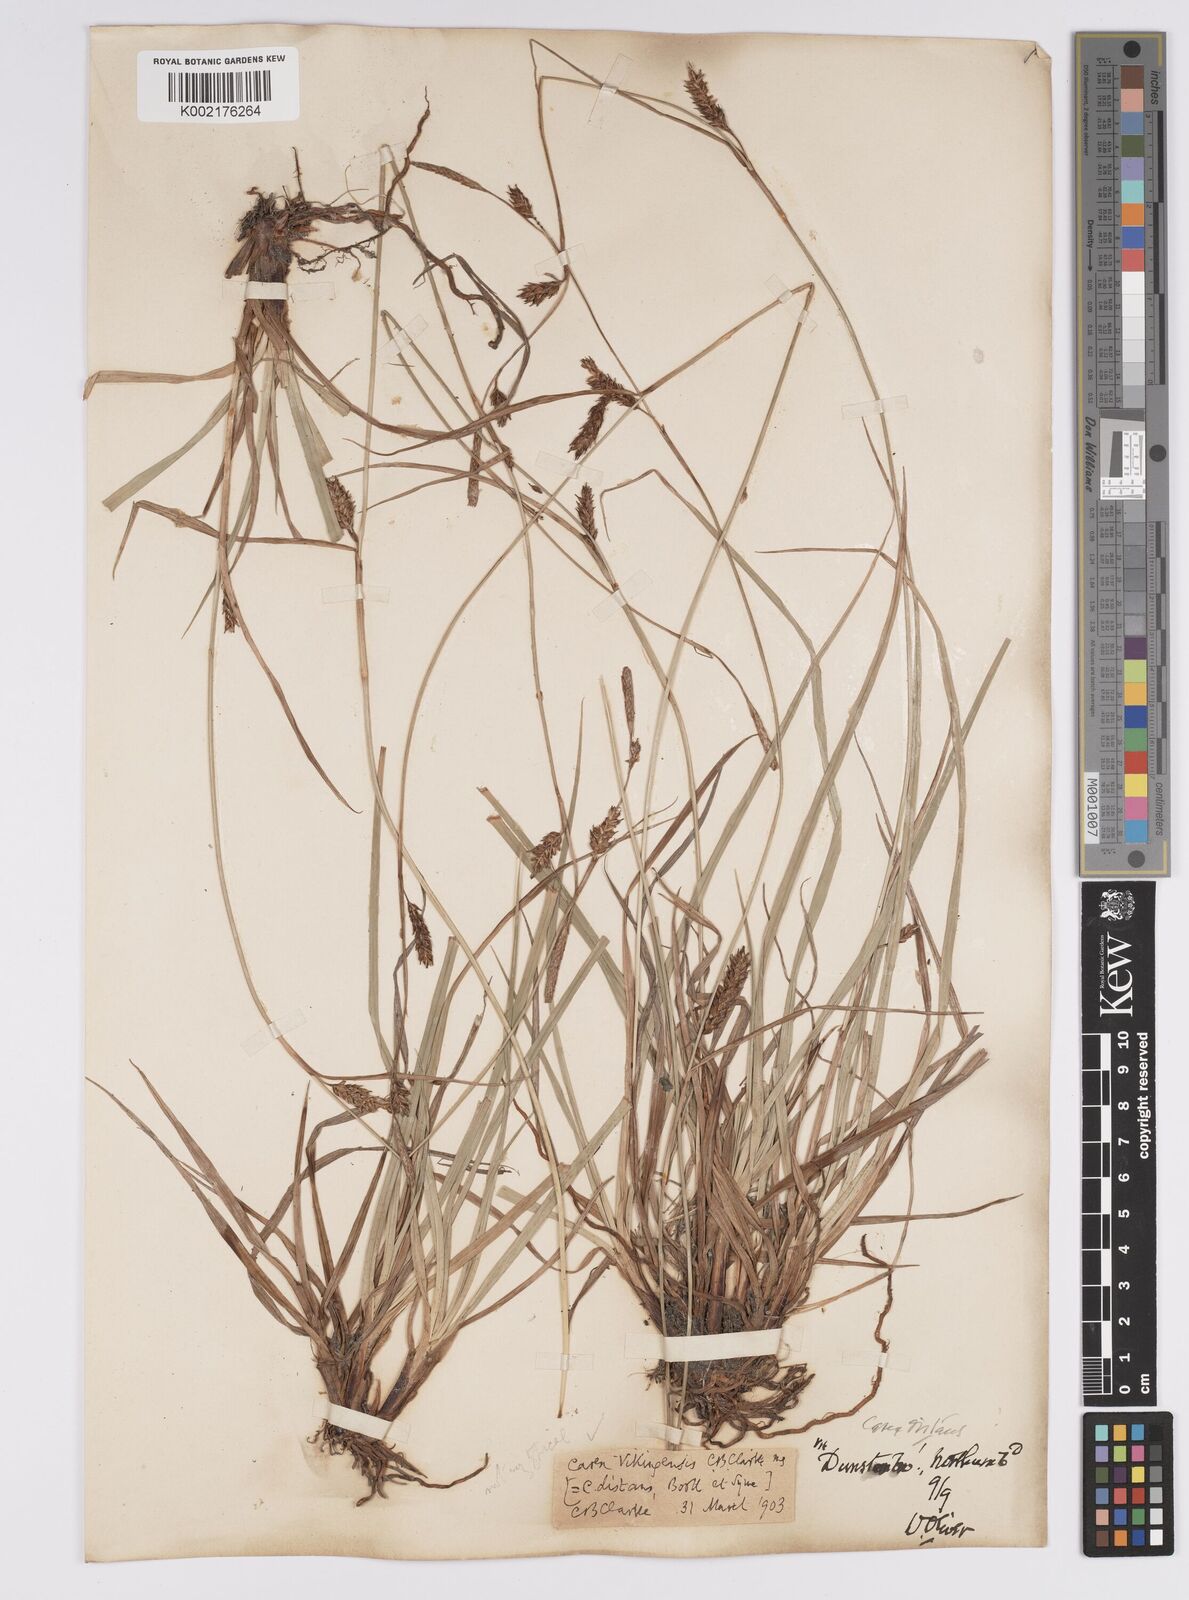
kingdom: Plantae
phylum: Tracheophyta
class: Liliopsida
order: Poales
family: Cyperaceae
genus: Carex
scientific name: Carex distans
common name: Distant sedge
